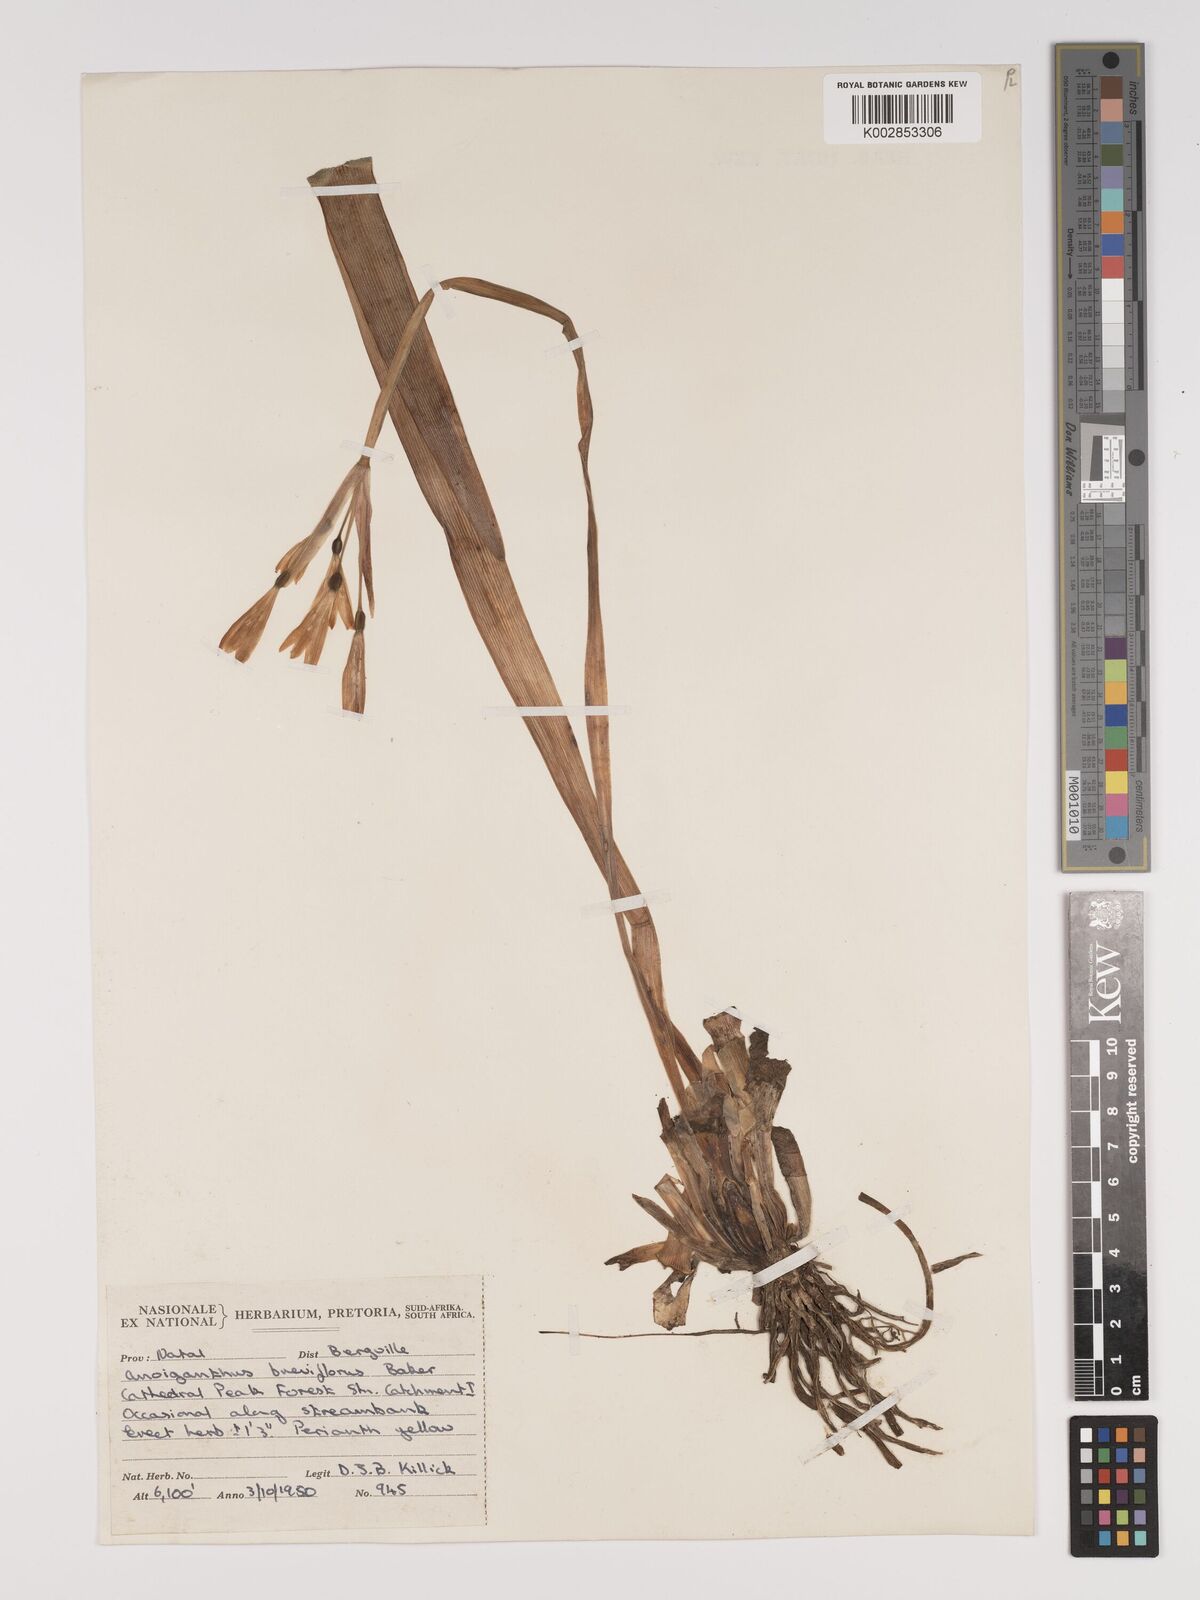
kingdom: Plantae
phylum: Tracheophyta
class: Liliopsida
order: Asparagales
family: Amaryllidaceae
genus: Cyrtanthus
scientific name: Cyrtanthus breviflorus
